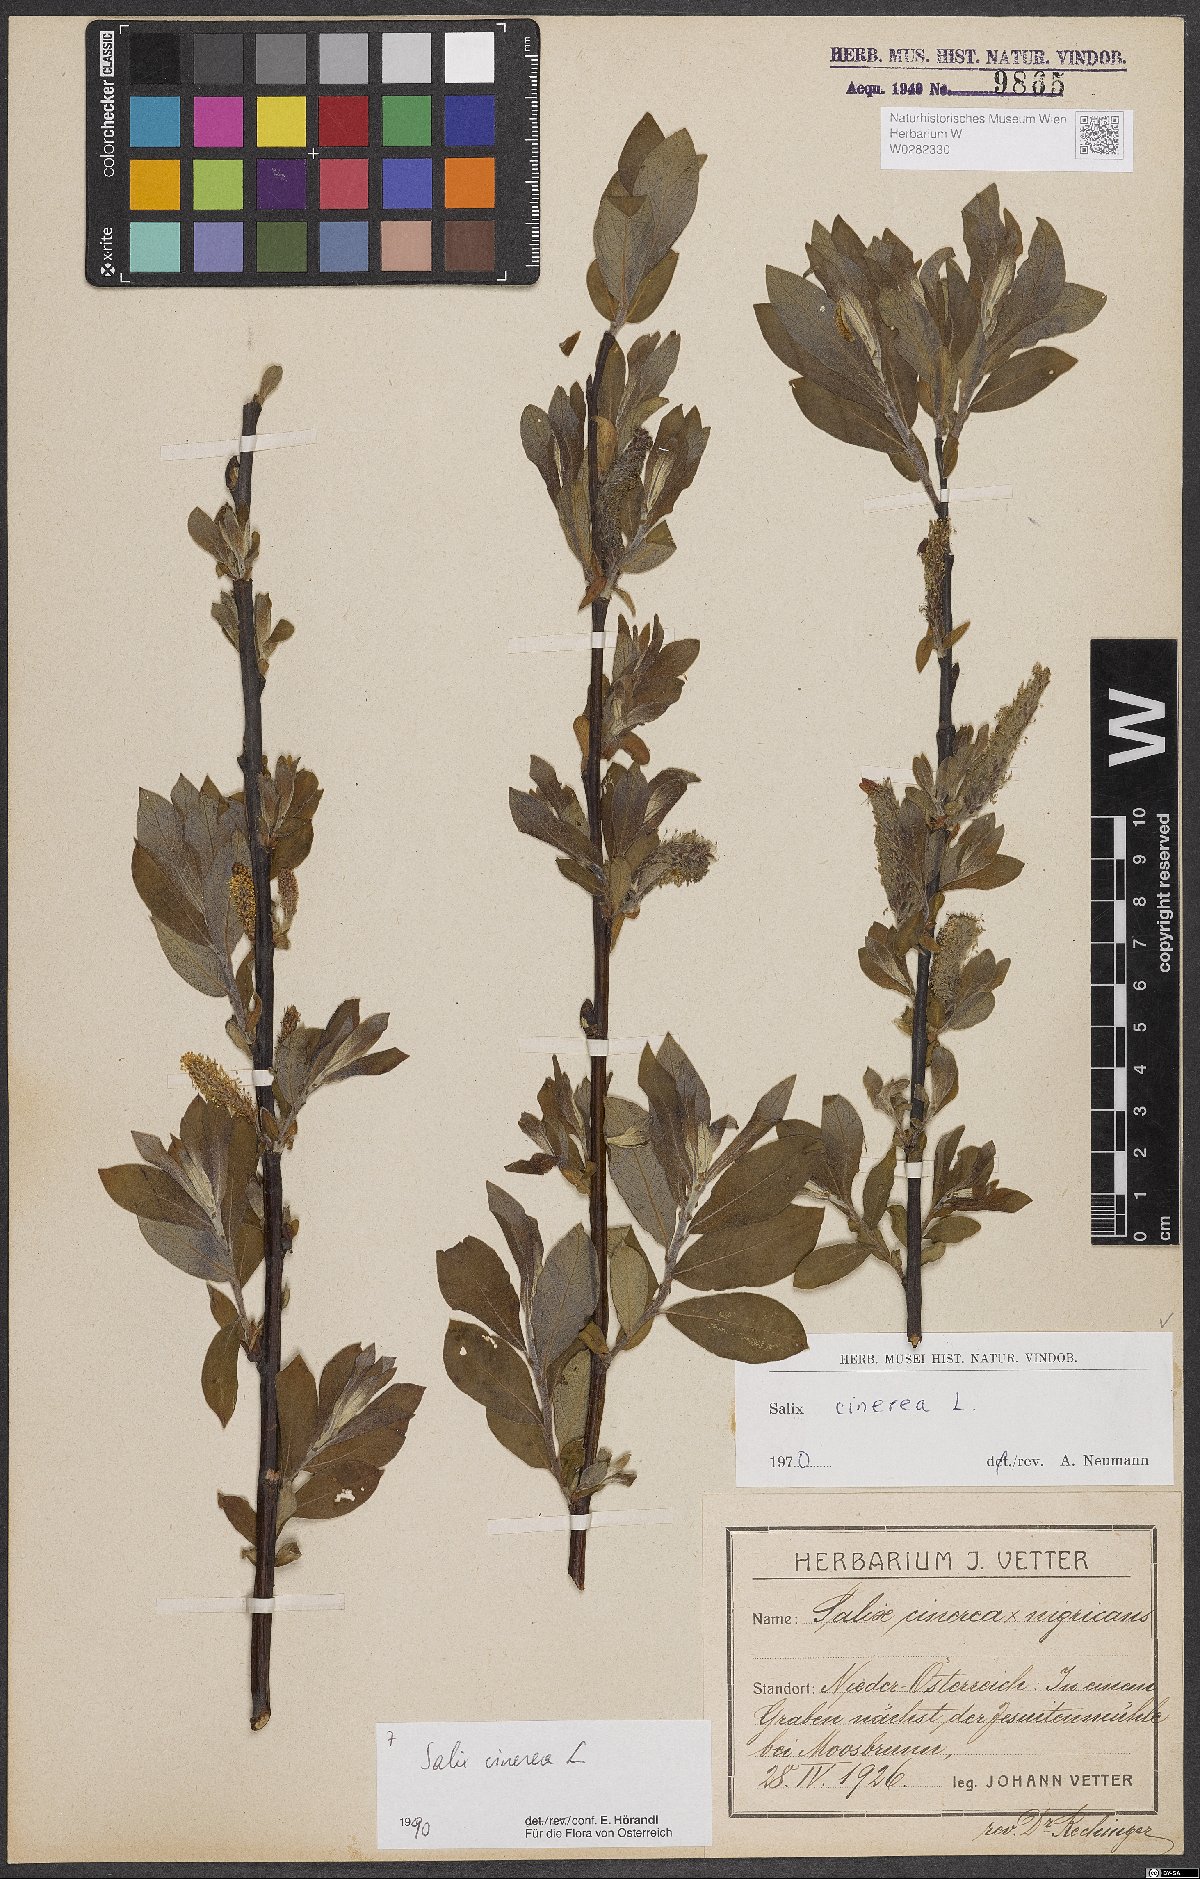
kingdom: Plantae
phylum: Tracheophyta
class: Magnoliopsida
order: Malpighiales
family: Salicaceae
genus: Salix
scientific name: Salix cinerea
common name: Common sallow
